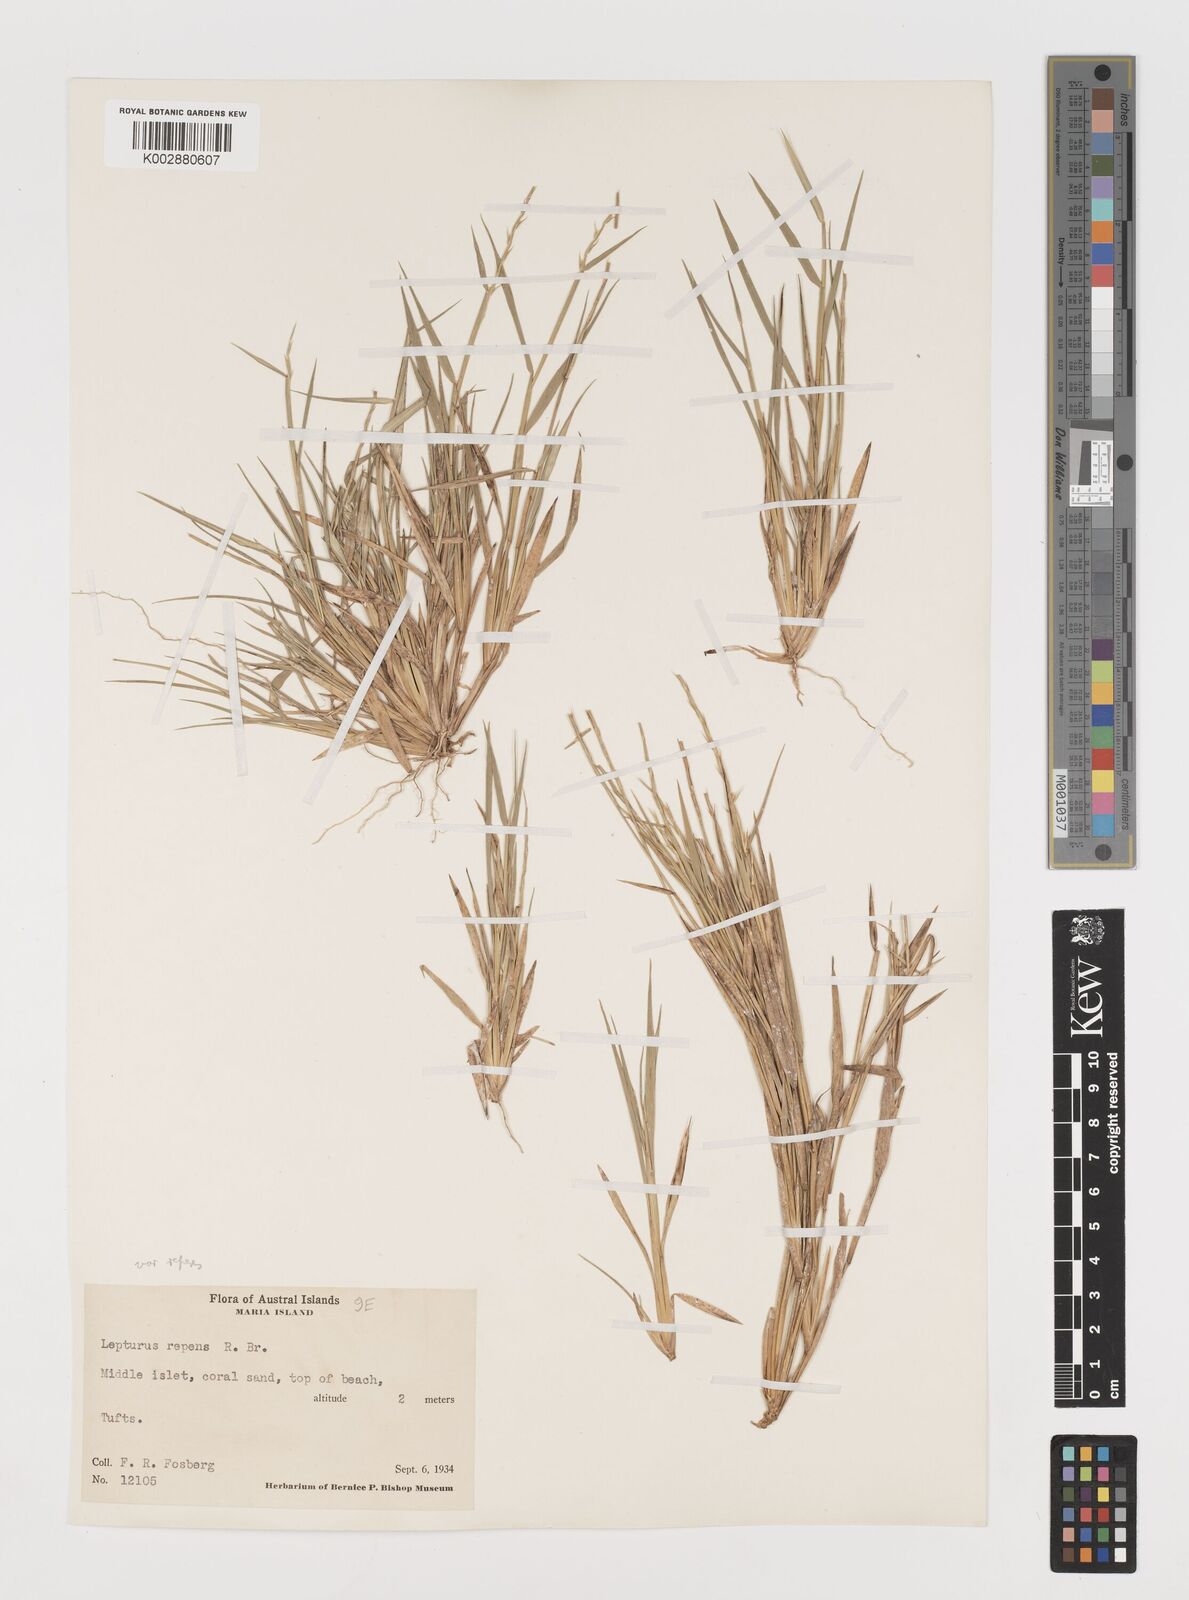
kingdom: Plantae
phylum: Tracheophyta
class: Liliopsida
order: Poales
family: Poaceae
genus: Lepturus
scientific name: Lepturus repens
